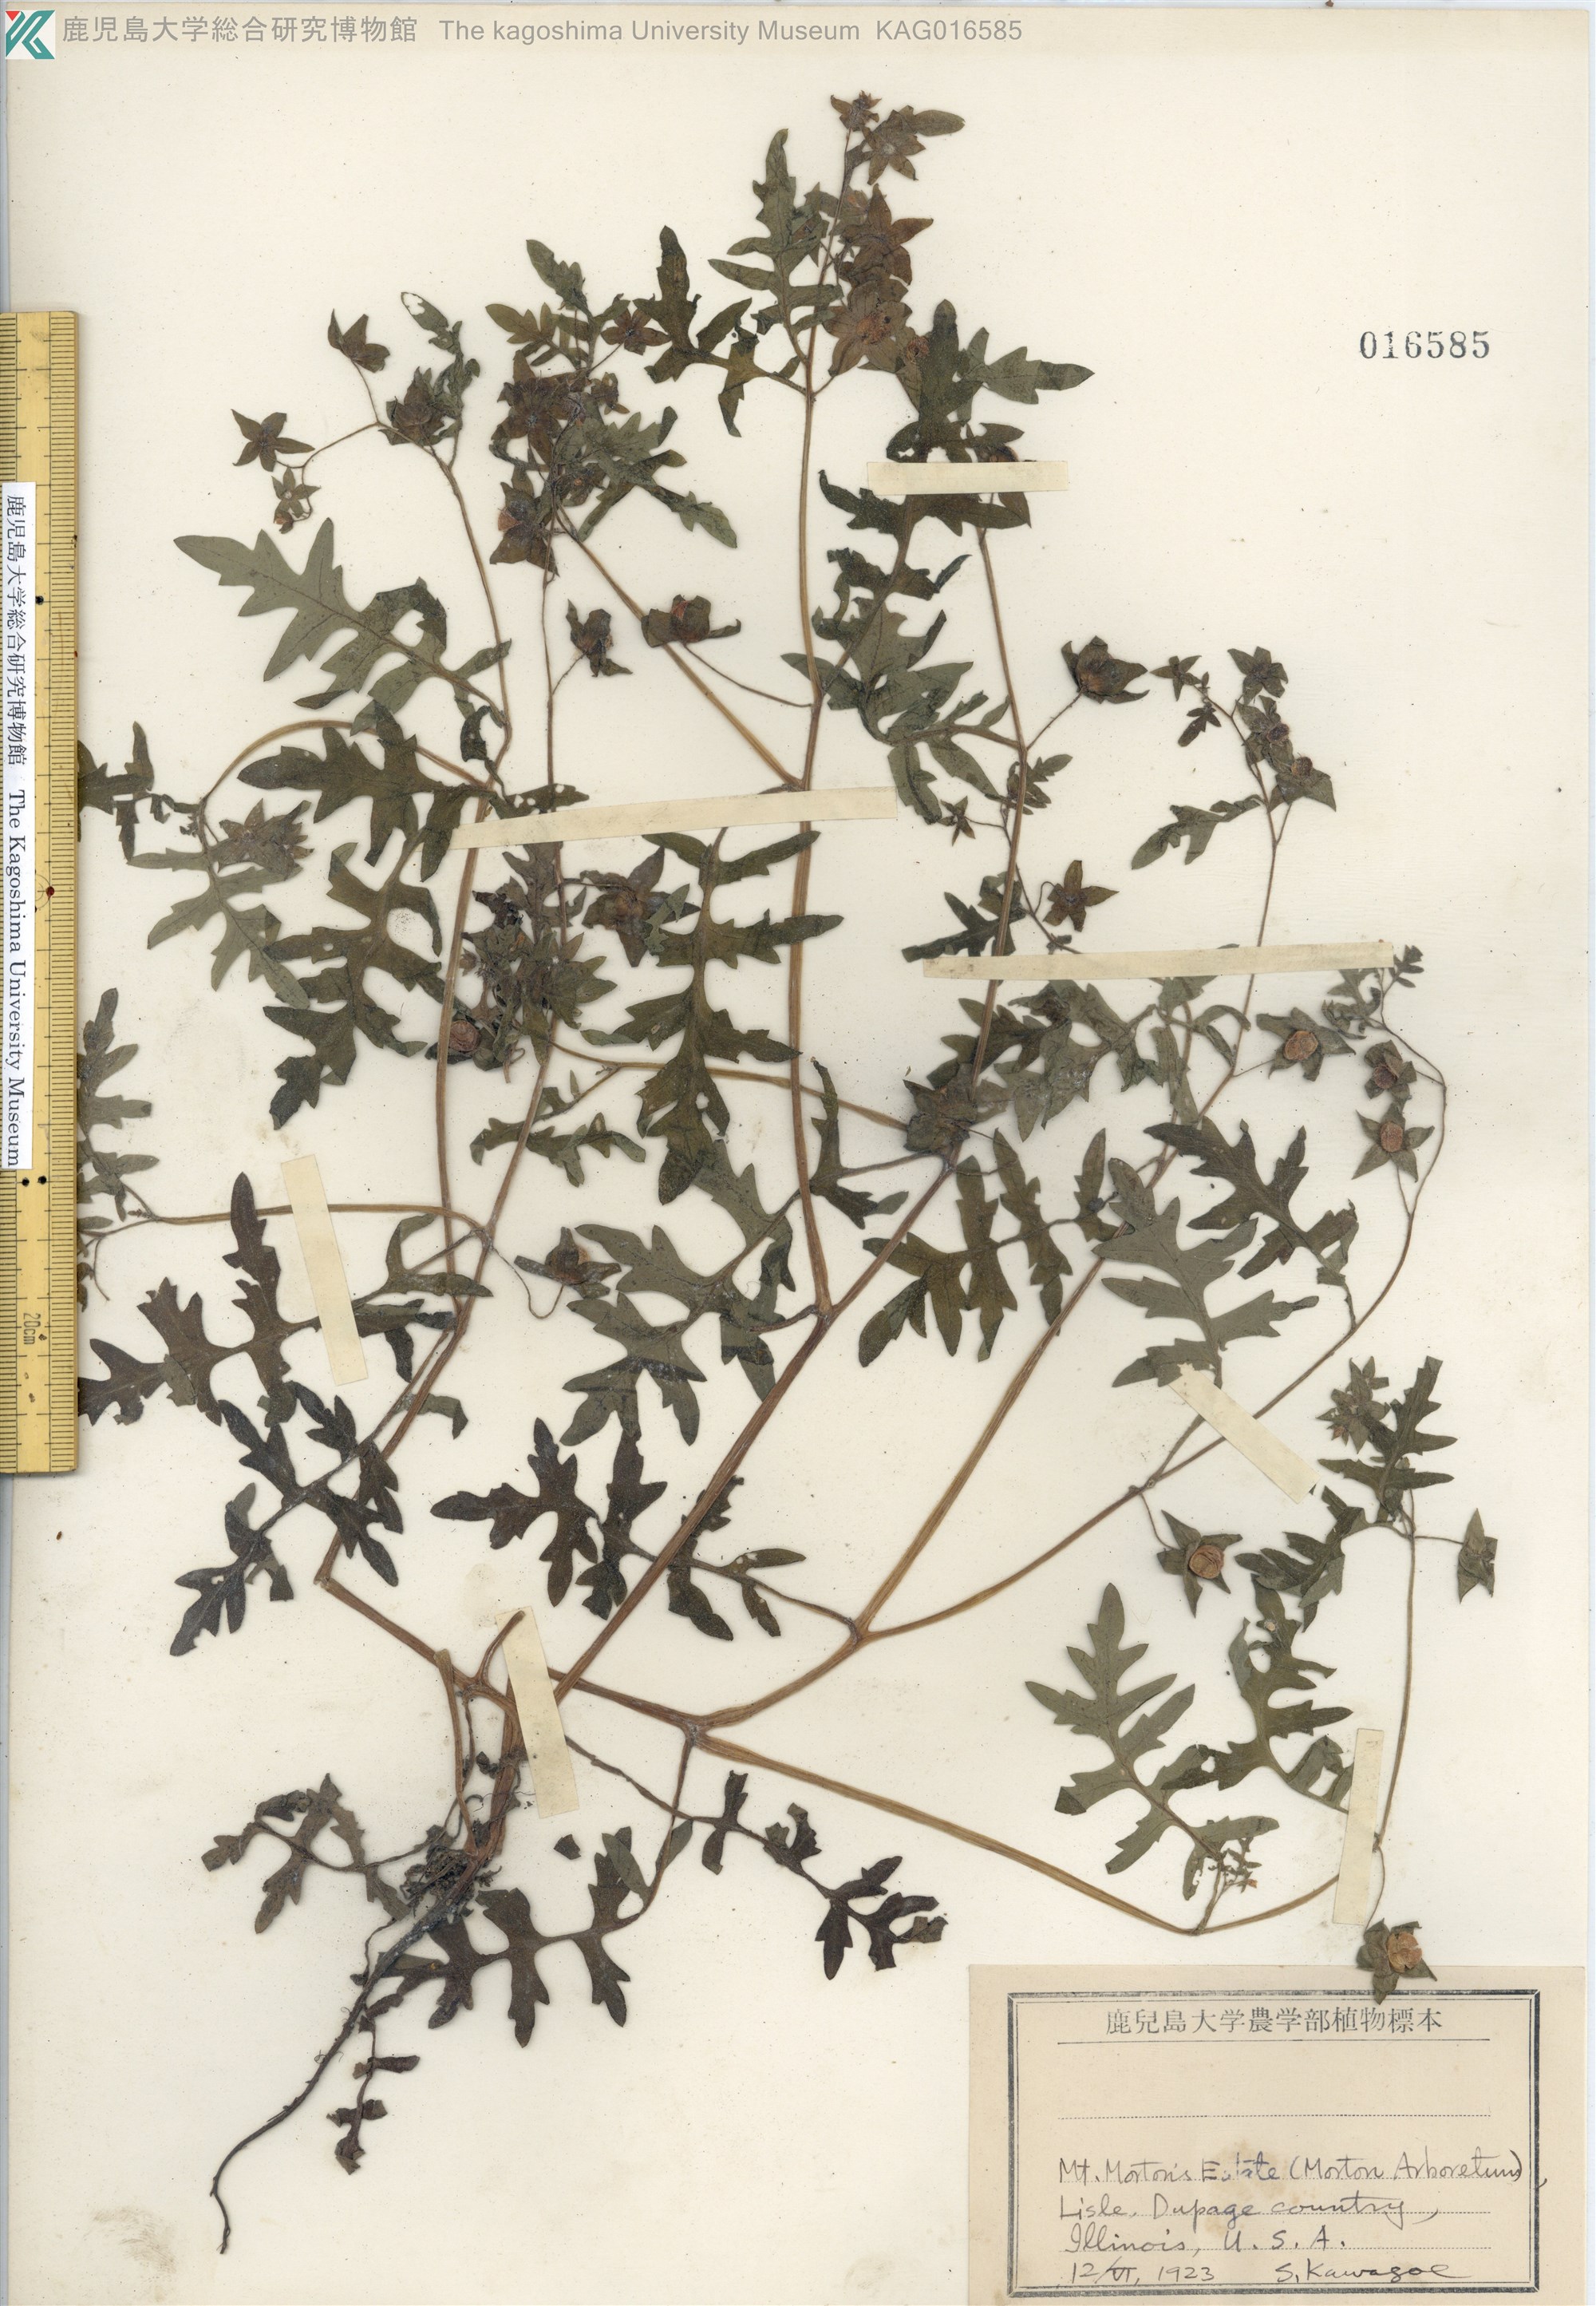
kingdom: Plantae
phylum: Tracheophyta
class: Magnoliopsida
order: Boraginales
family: Hydrophyllaceae
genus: Pholistoma
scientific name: Pholistoma auritum
